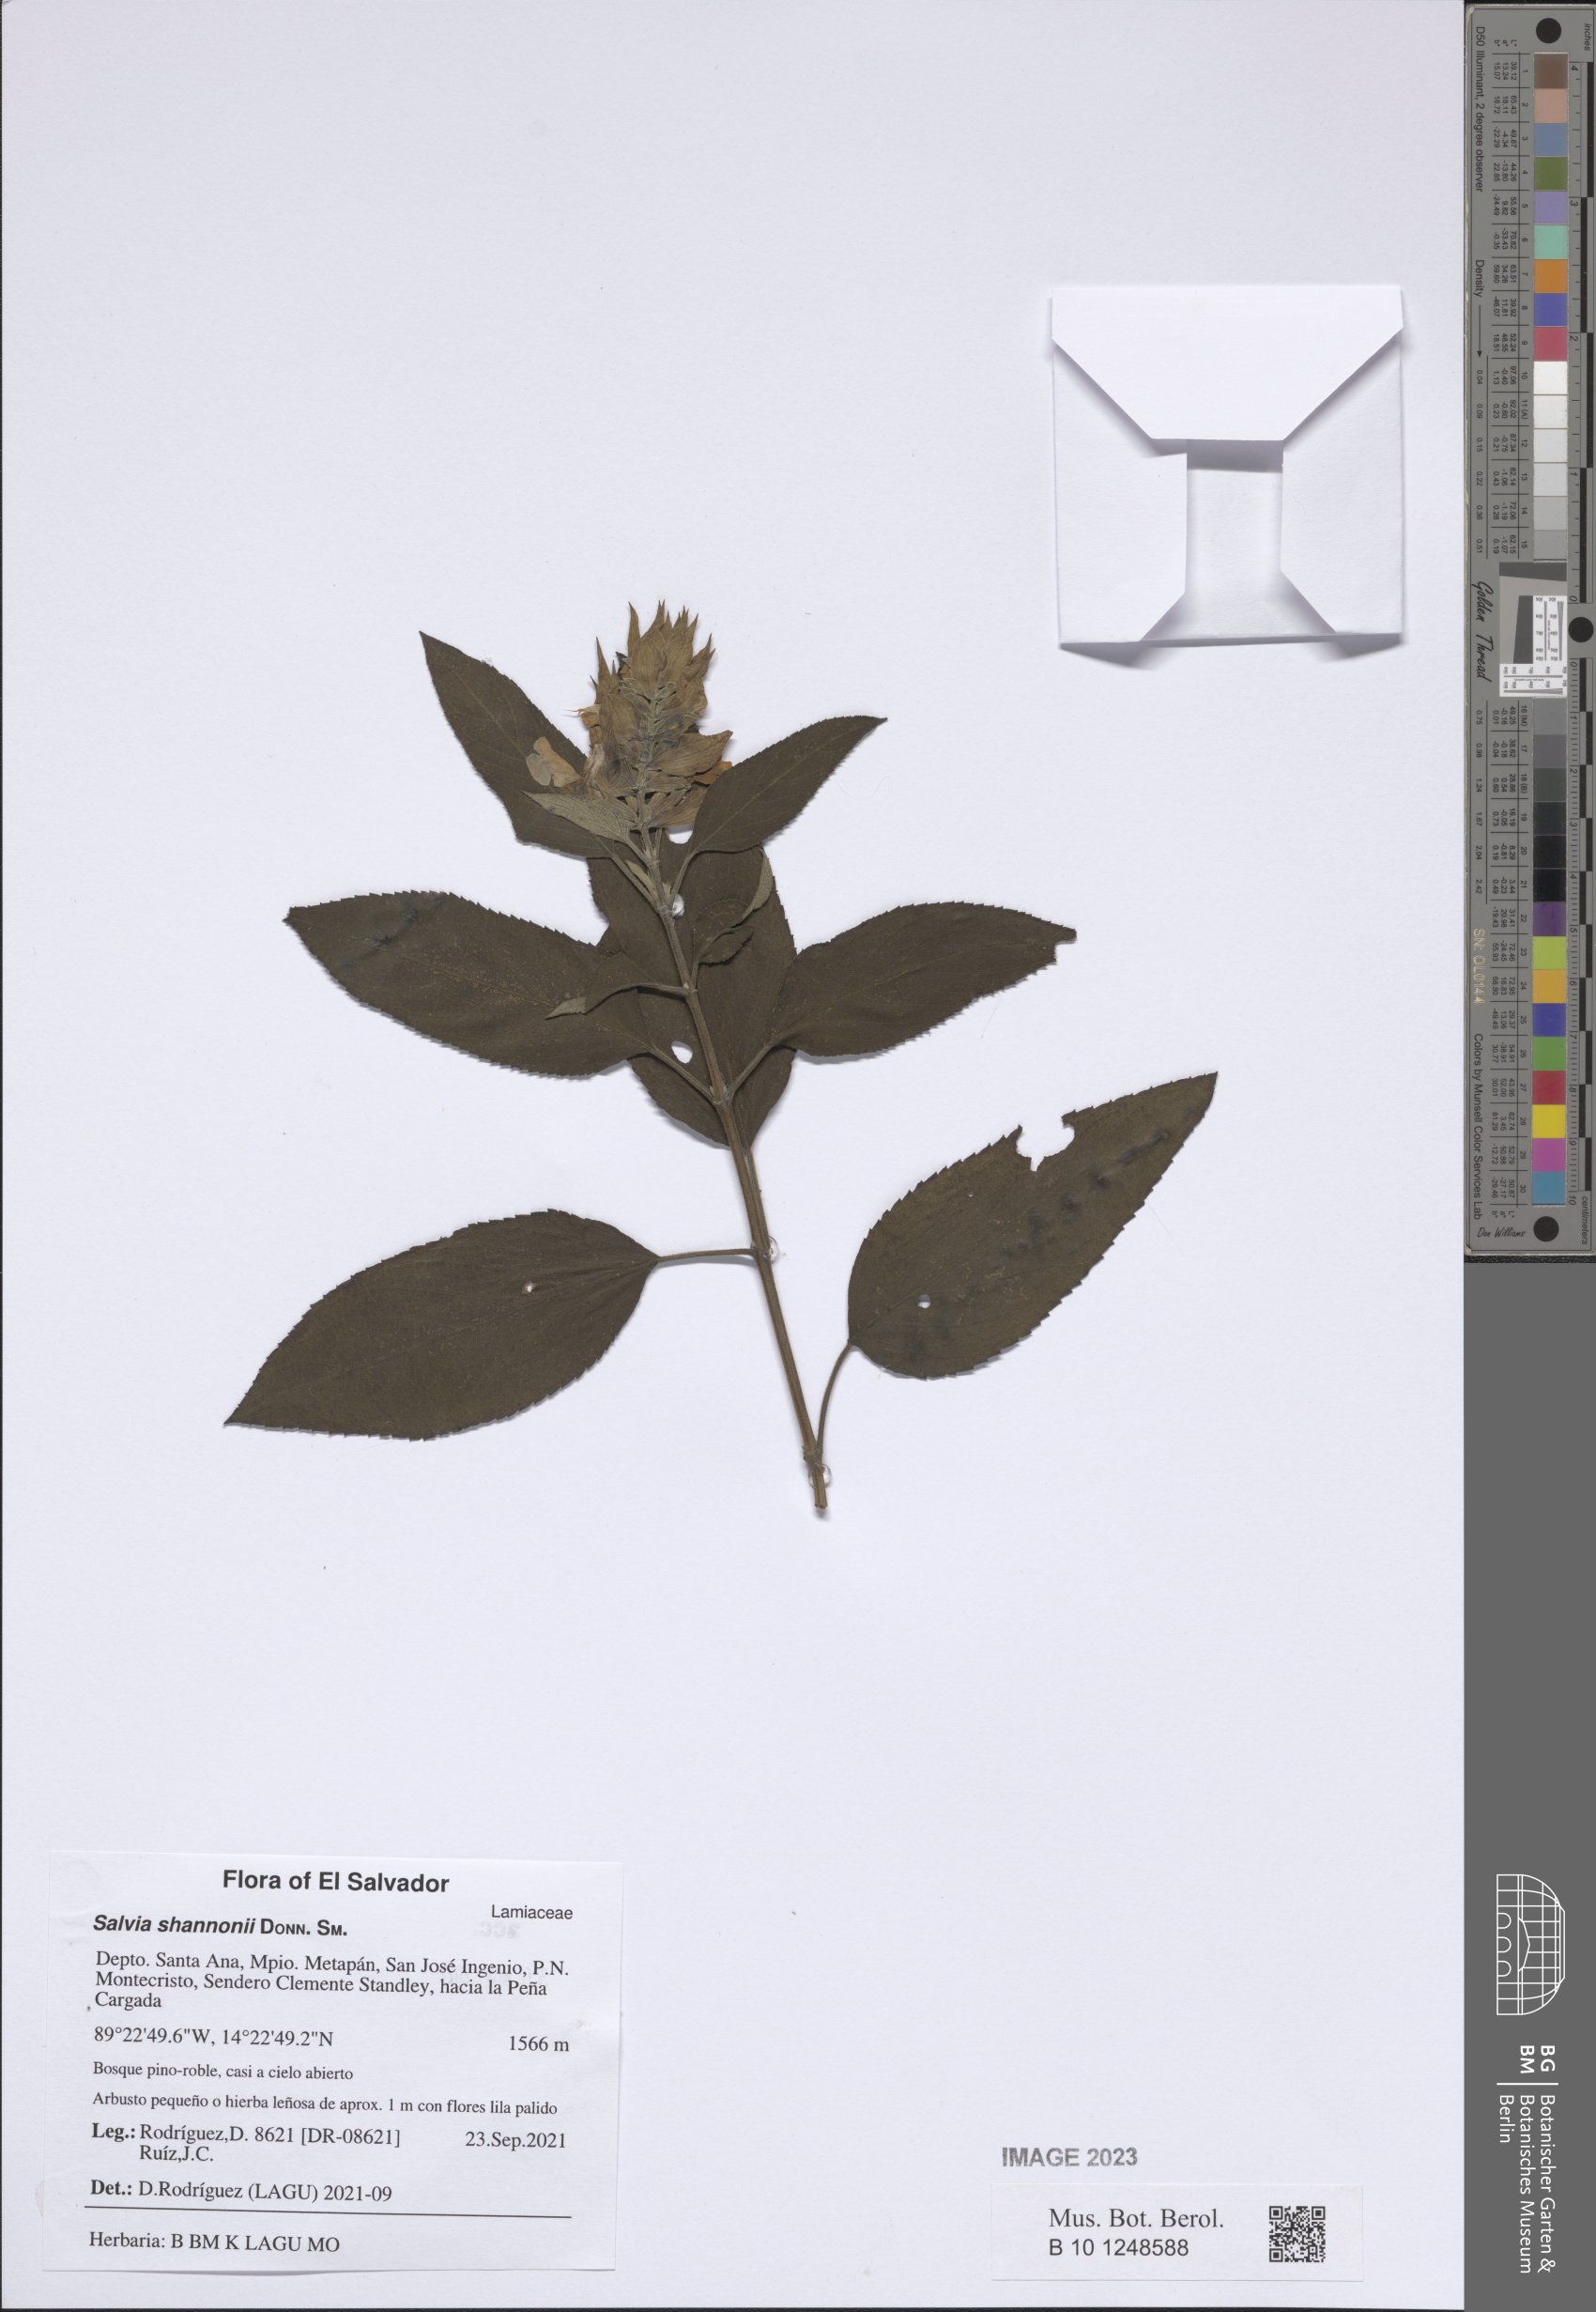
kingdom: Plantae
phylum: Tracheophyta
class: Magnoliopsida
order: Lamiales
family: Lamiaceae
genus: Salvia
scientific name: Salvia shannonii
